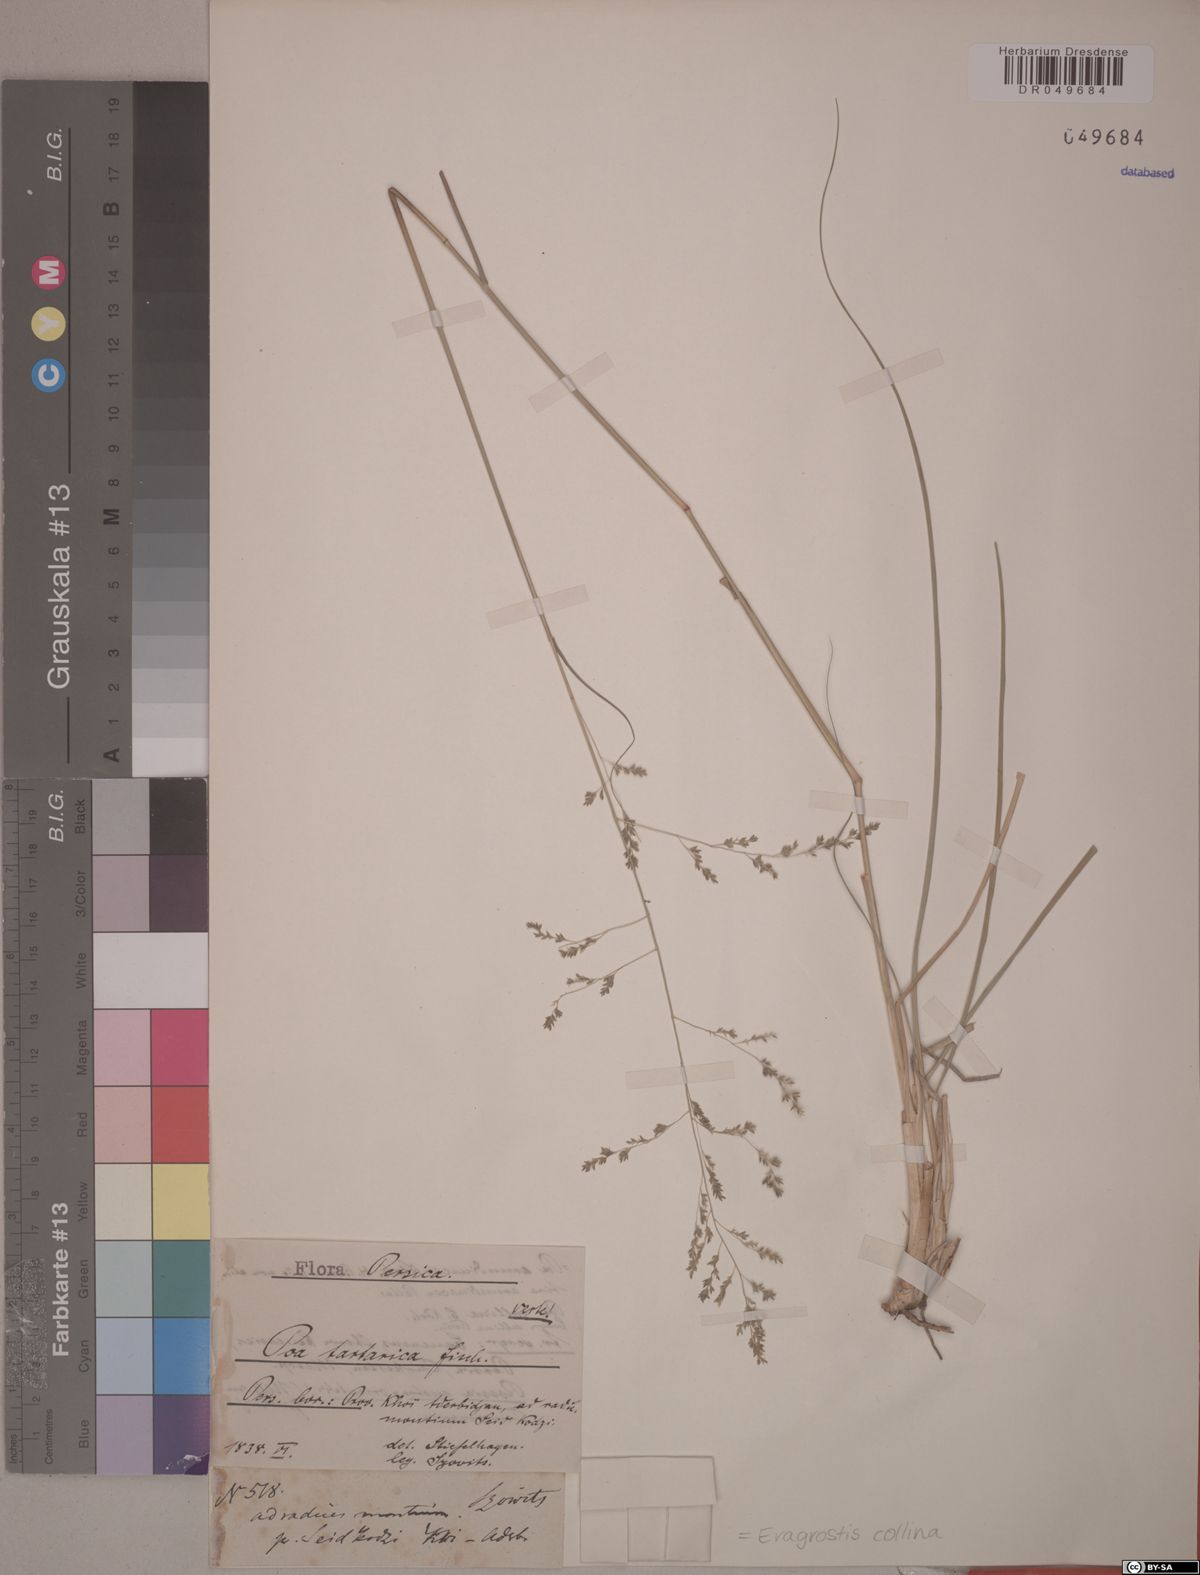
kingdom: Plantae
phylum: Tracheophyta
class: Liliopsida
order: Poales
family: Poaceae
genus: Eragrostis
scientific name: Eragrostis collina
